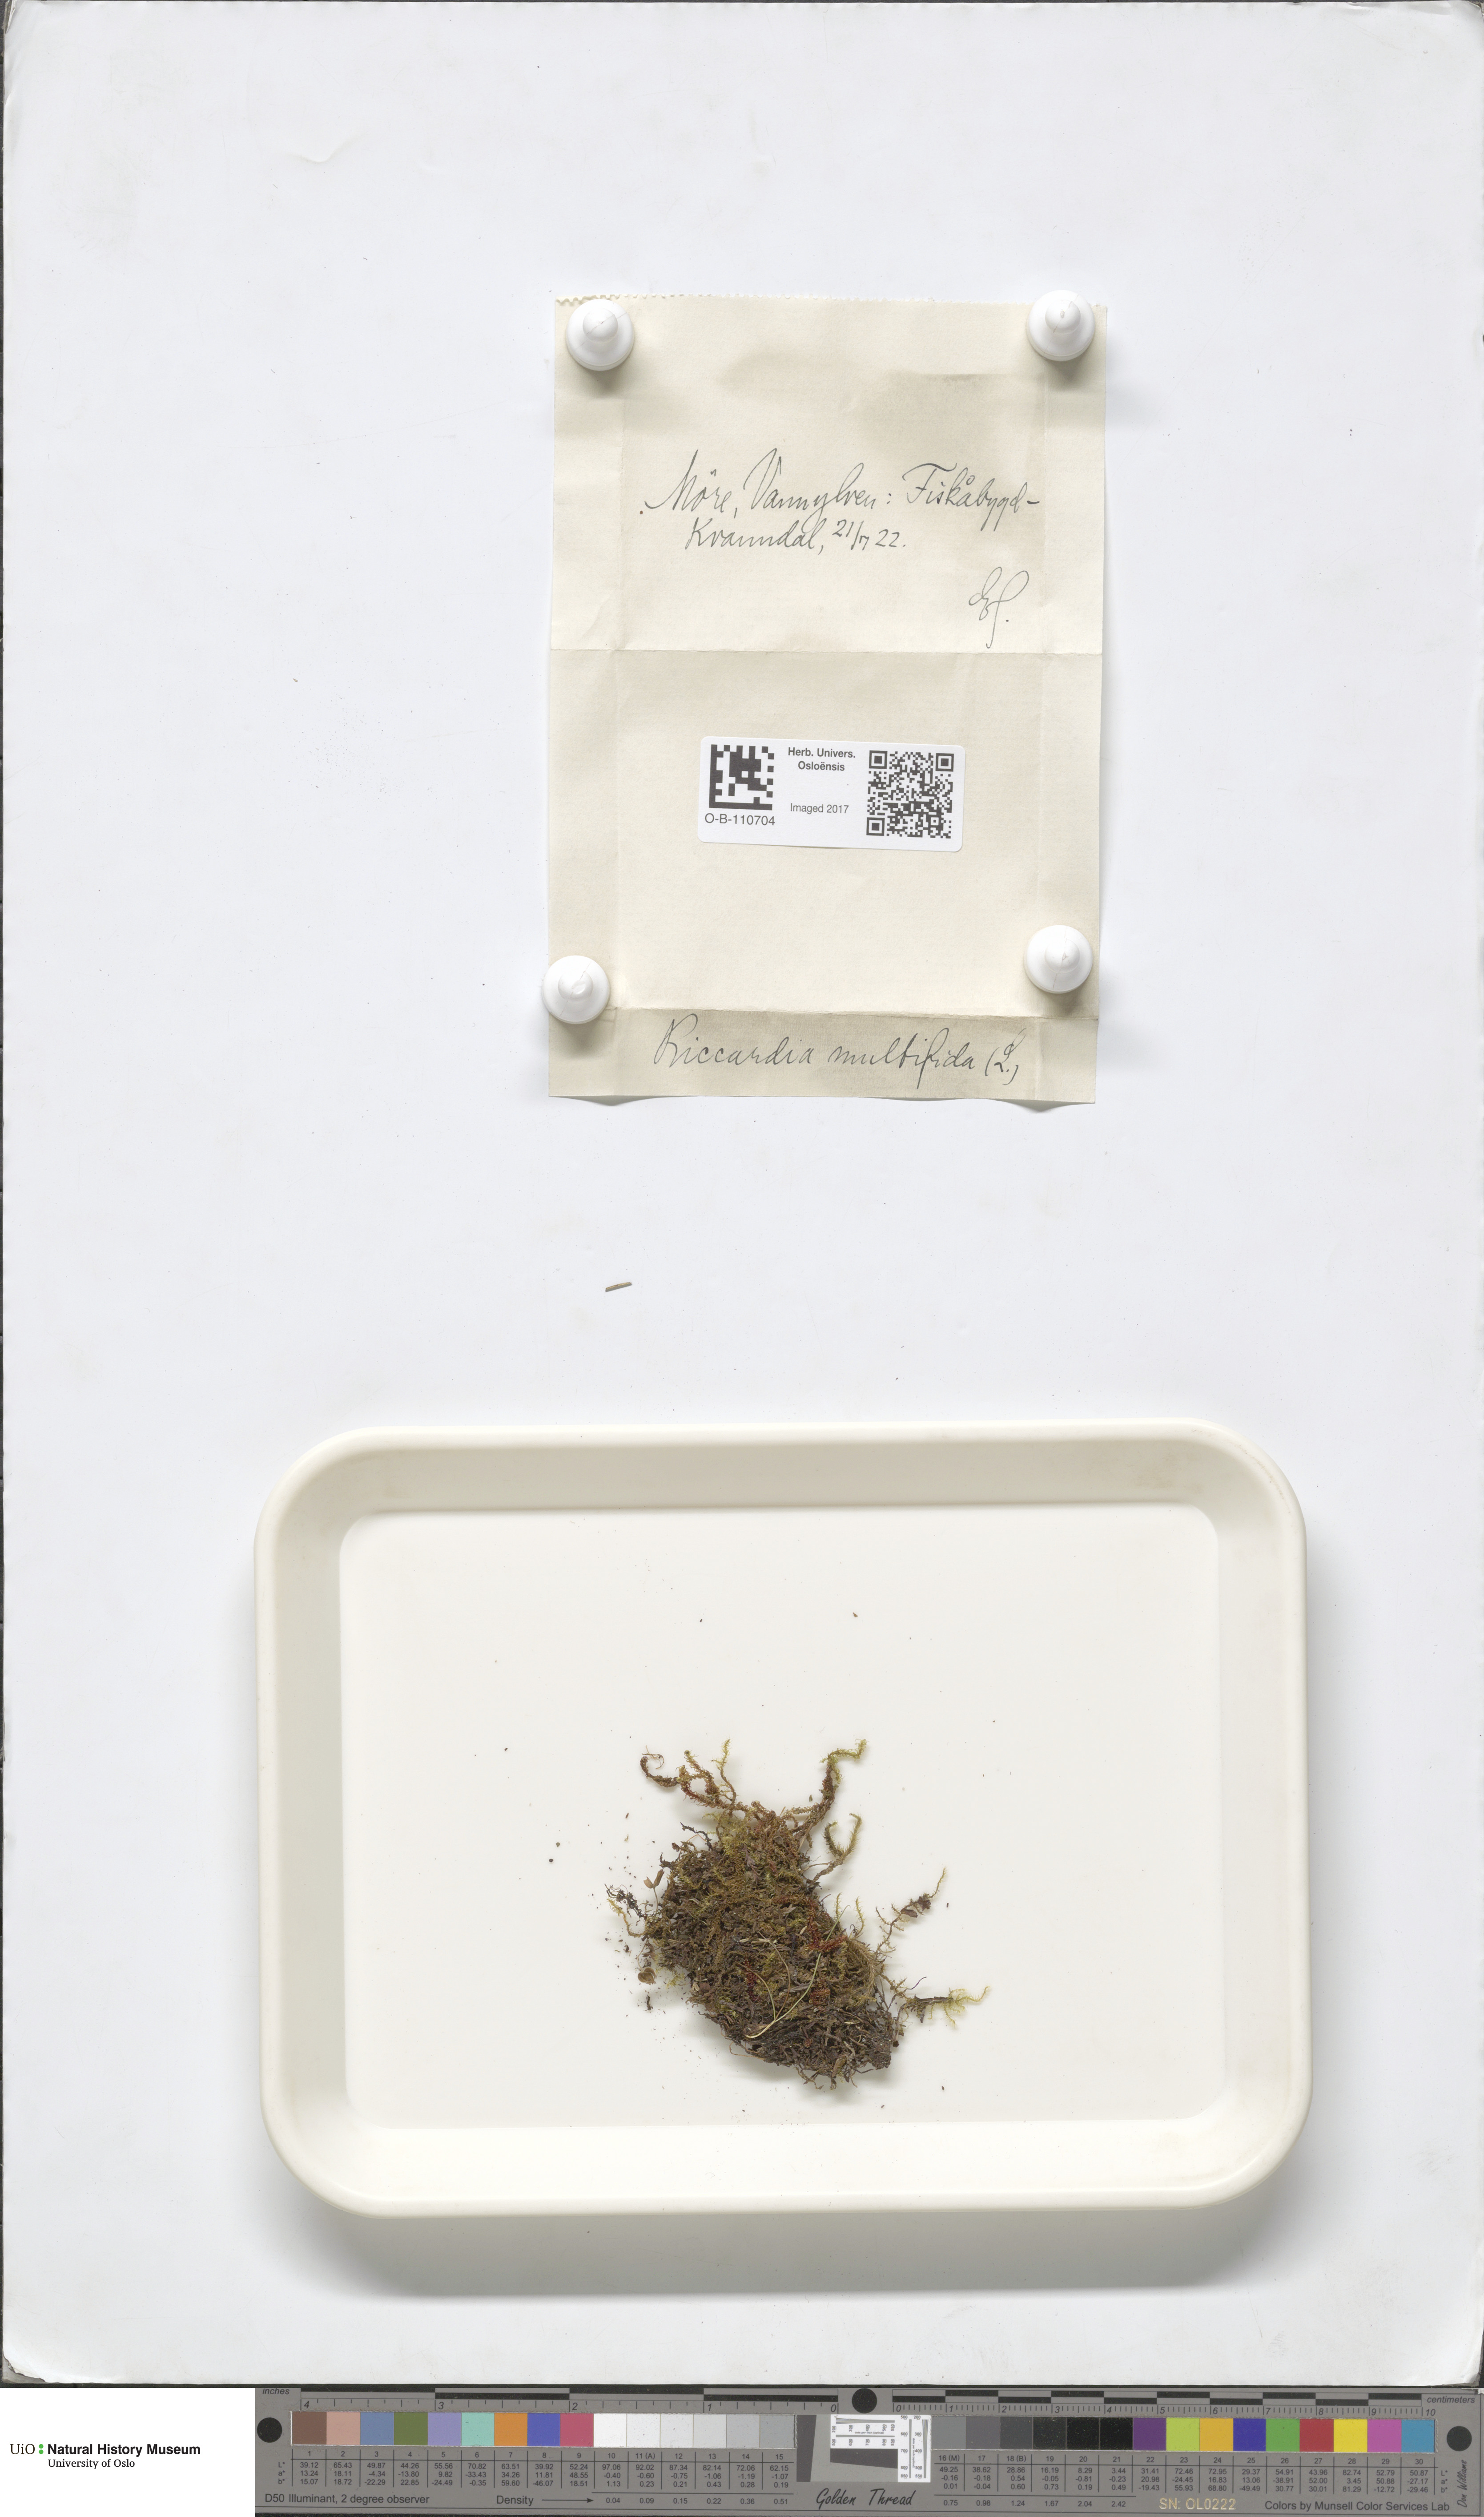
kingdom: Plantae
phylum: Marchantiophyta
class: Jungermanniopsida
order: Metzgeriales
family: Aneuraceae
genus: Riccardia
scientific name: Riccardia palmata
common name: Palmate germanderwort
